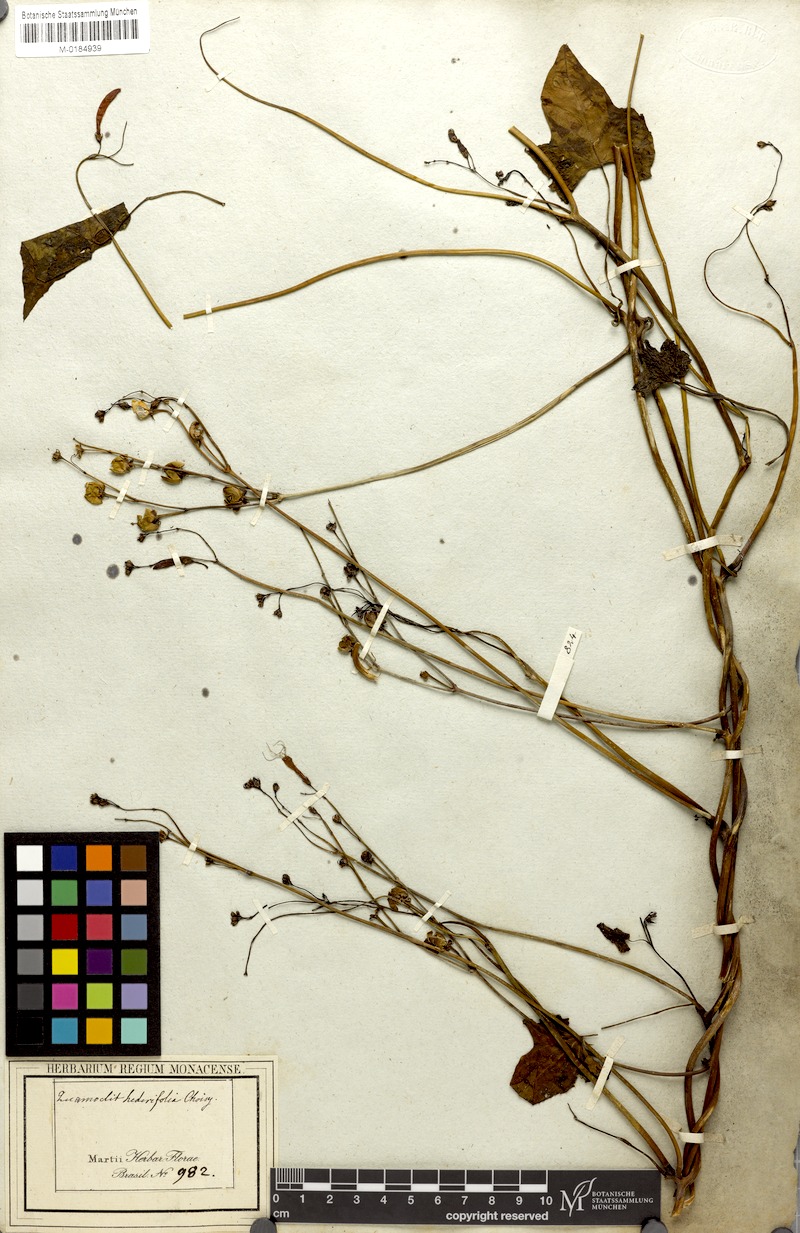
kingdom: Plantae
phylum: Tracheophyta
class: Magnoliopsida
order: Solanales
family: Convolvulaceae
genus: Ipomoea
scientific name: Ipomoea eriocarpa
